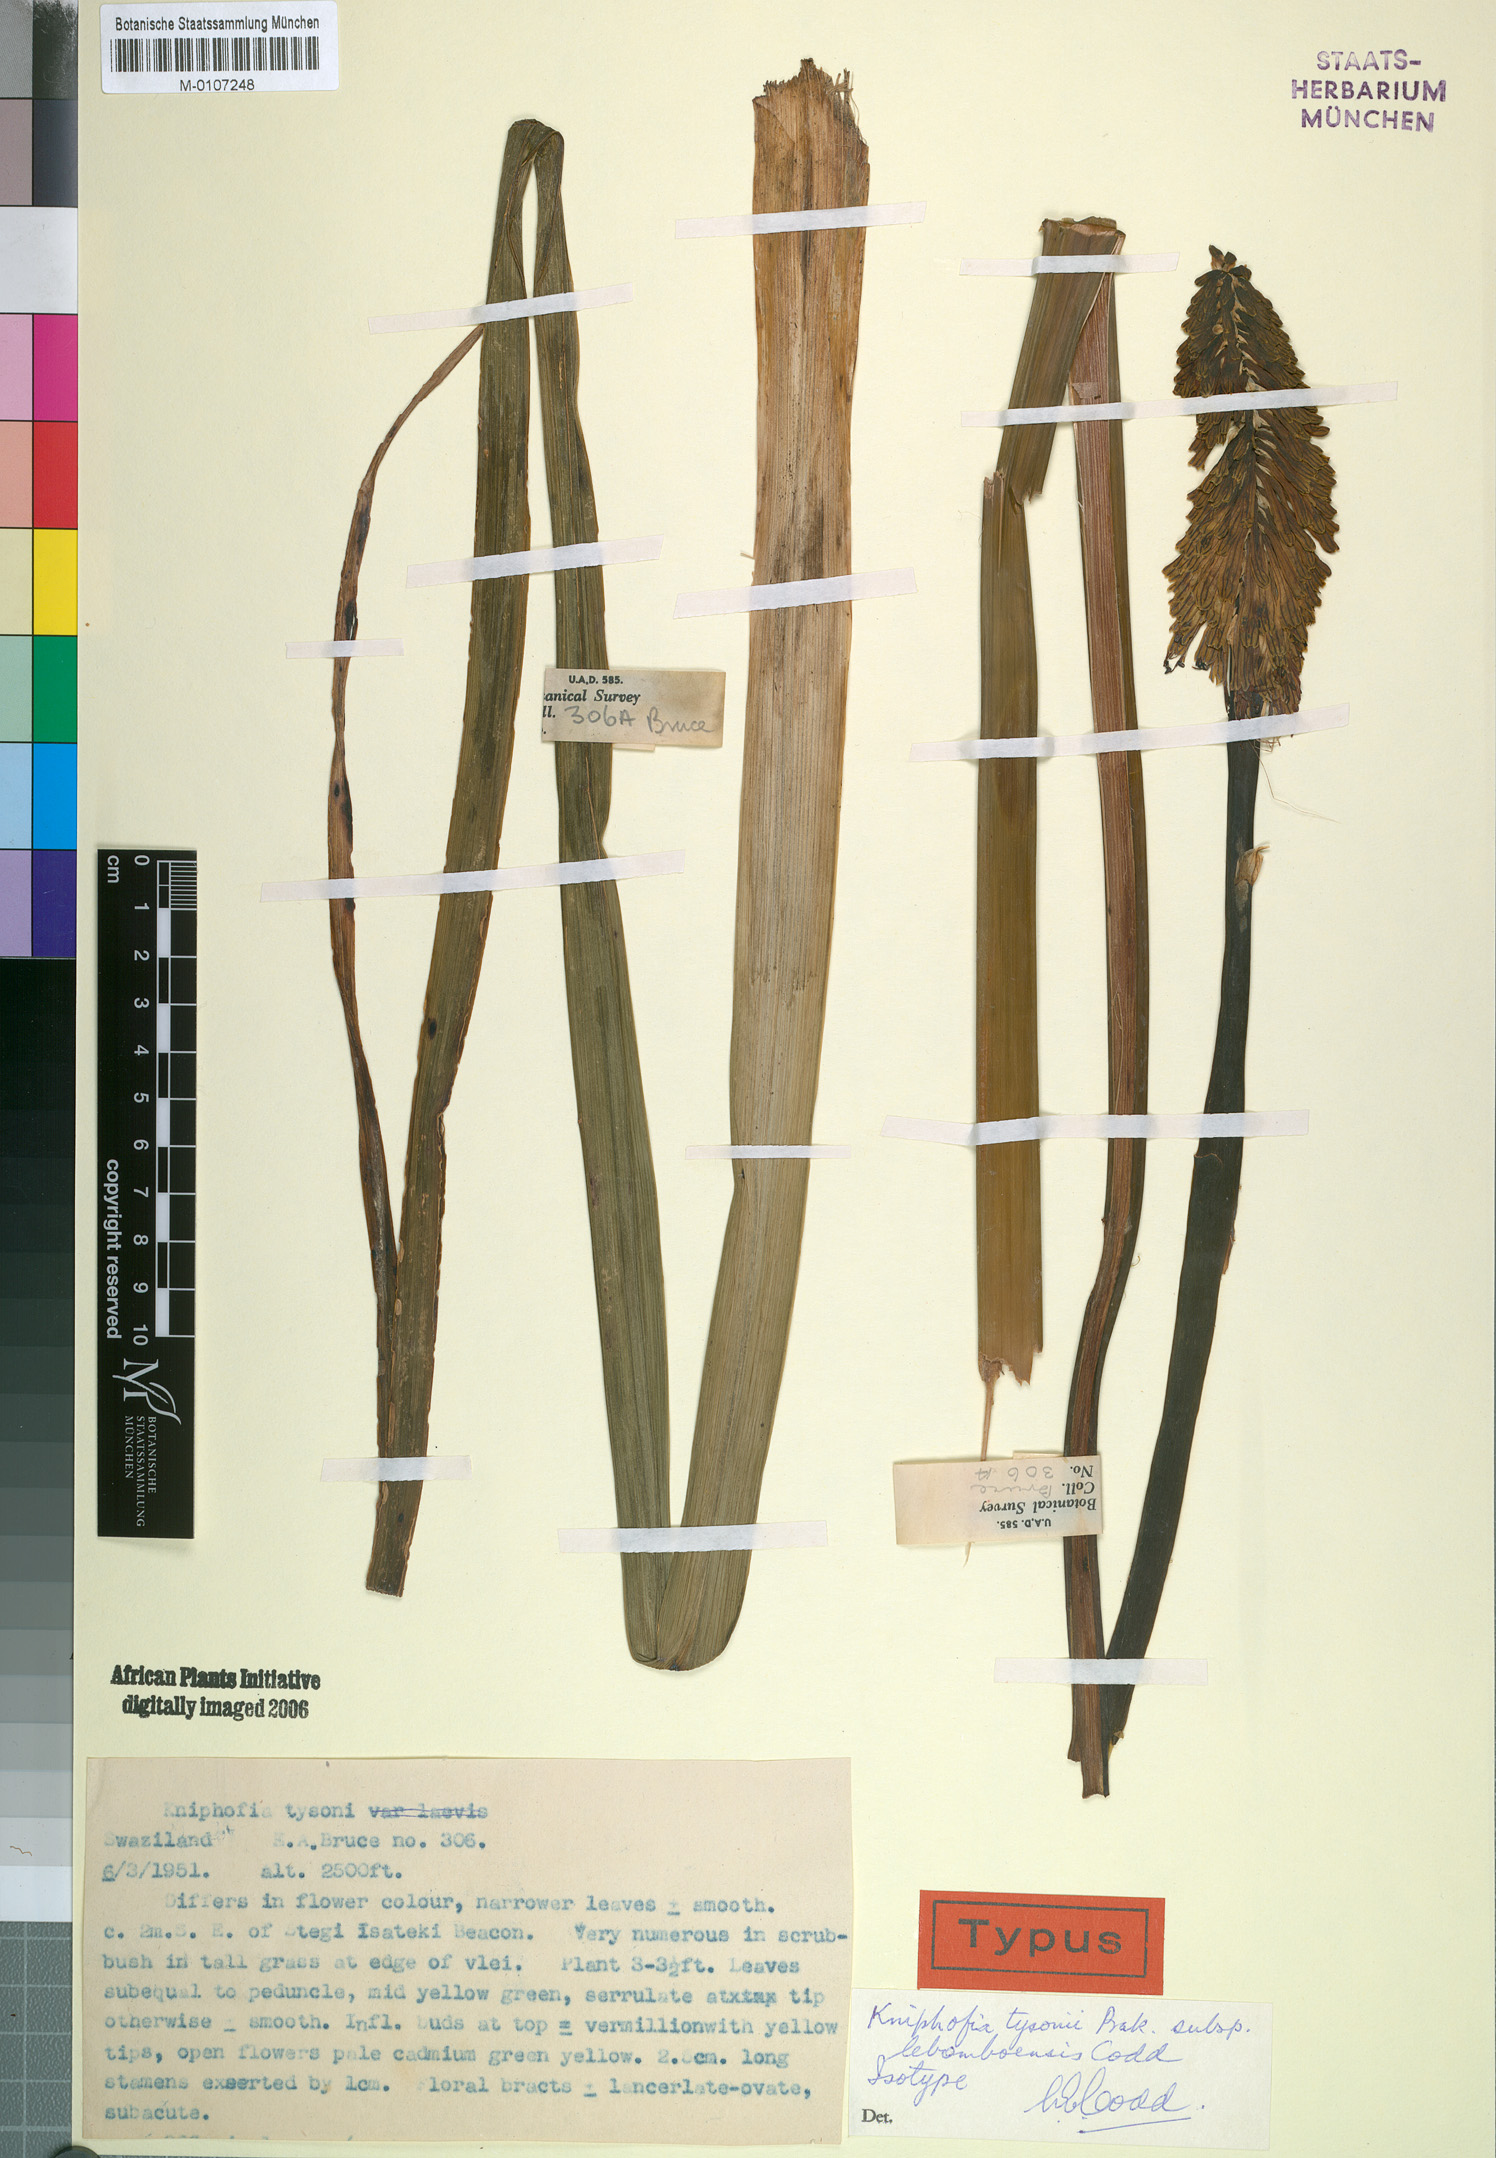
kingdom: Plantae
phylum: Tracheophyta
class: Liliopsida
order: Asparagales
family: Asphodelaceae
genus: Kniphofia
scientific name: Kniphofia tysonii
